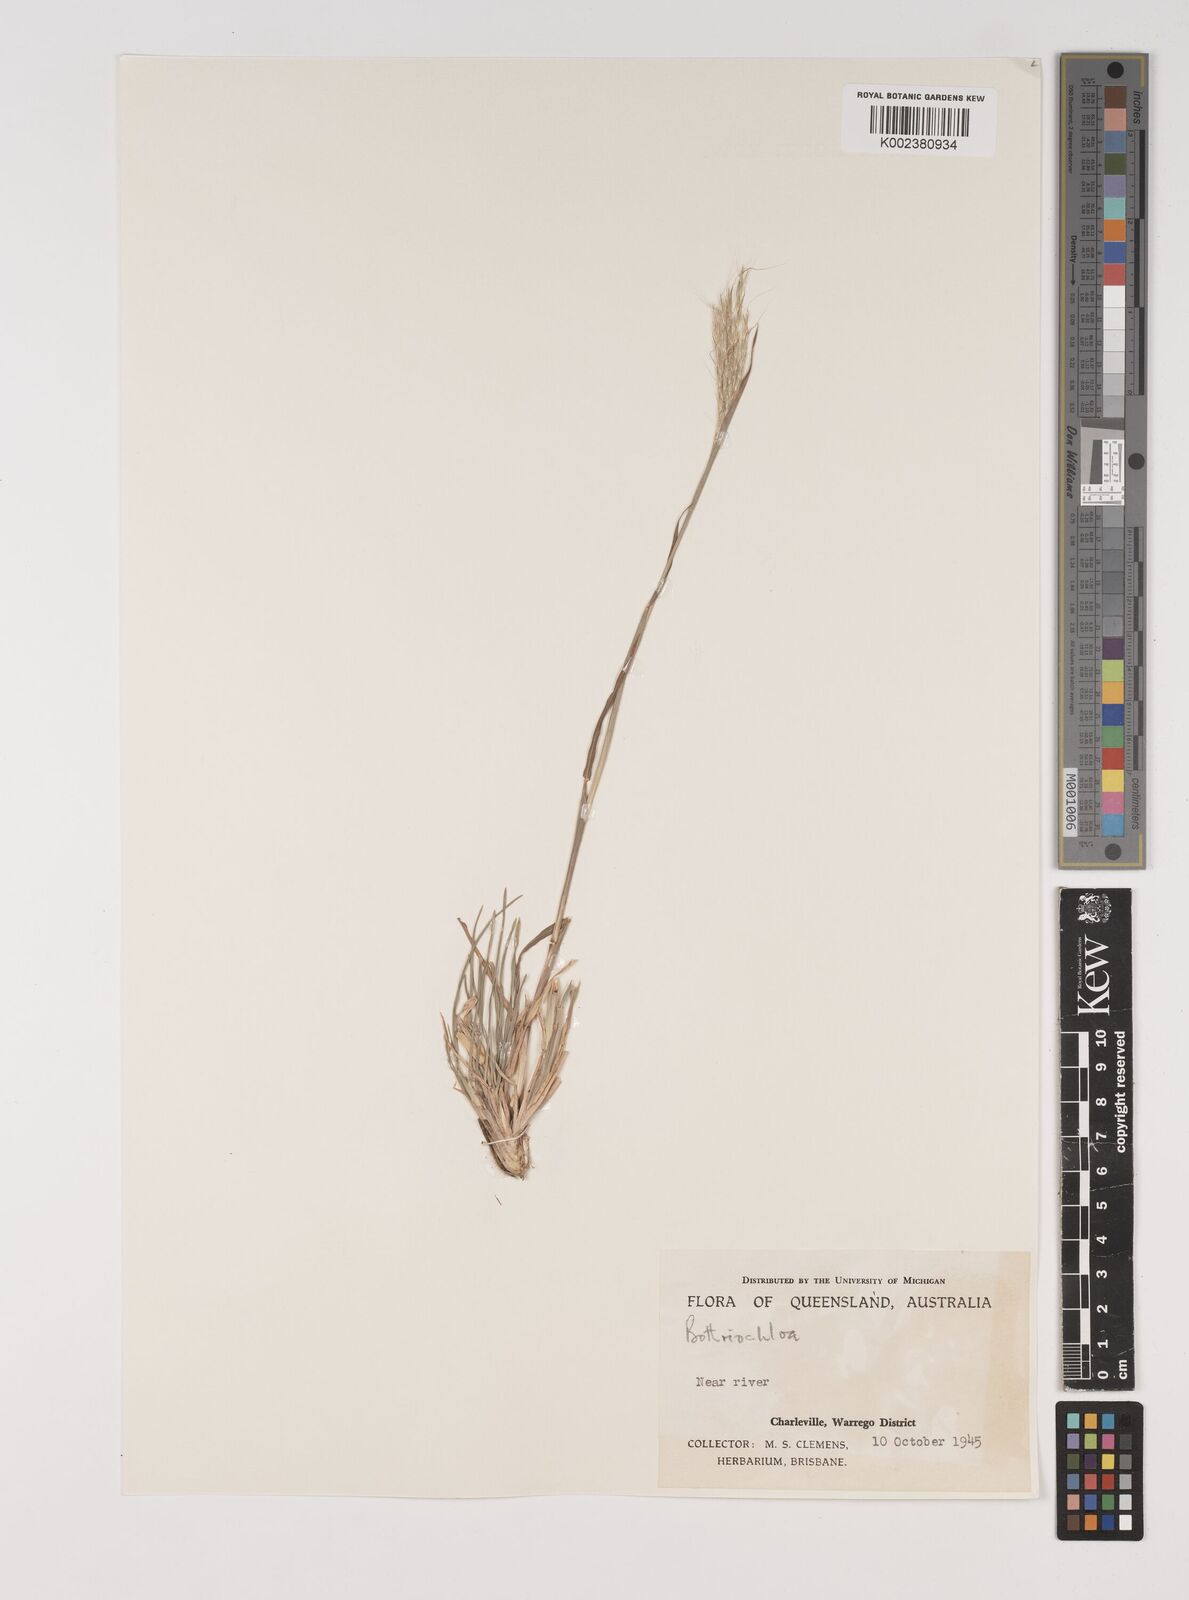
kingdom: Plantae
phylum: Tracheophyta
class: Liliopsida
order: Poales
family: Poaceae
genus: Bothriochloa
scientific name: Bothriochloa decipiens
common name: Pitted-bluegrass
